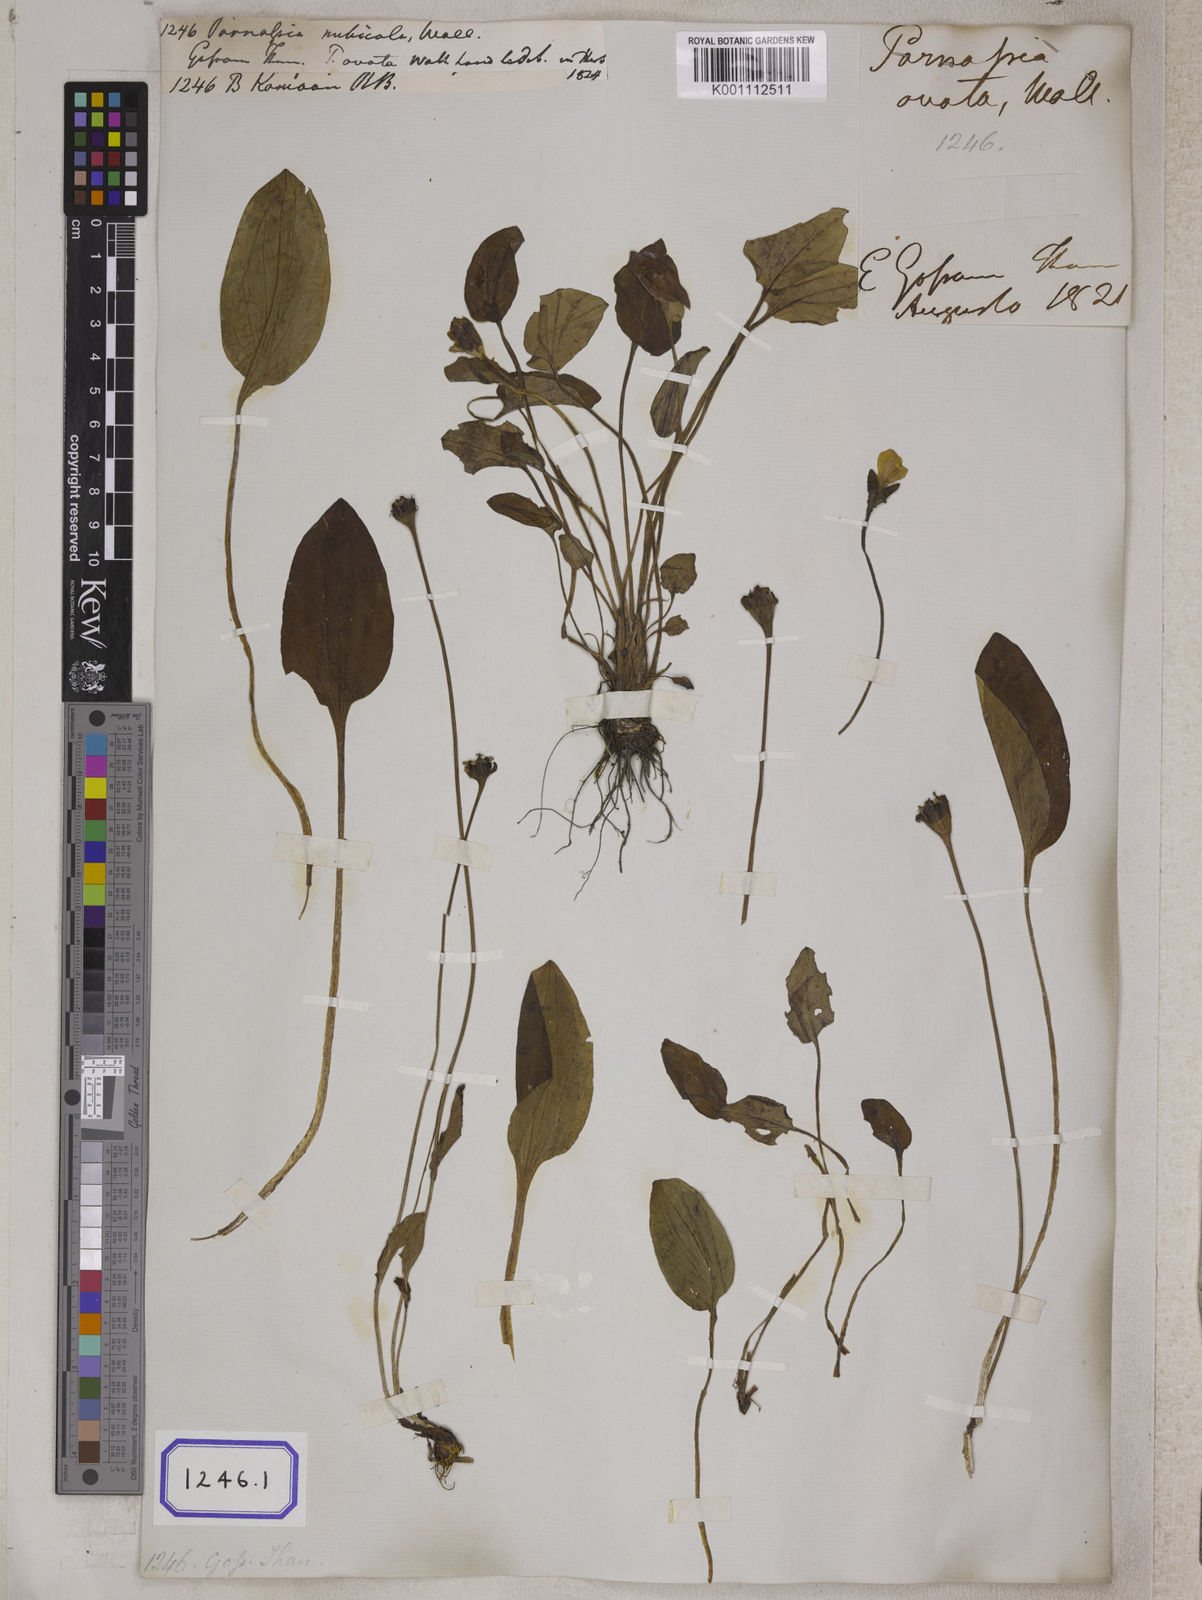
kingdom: Plantae
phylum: Tracheophyta
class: Magnoliopsida
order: Celastrales
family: Parnassiaceae
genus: Parnassia
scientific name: Parnassia
